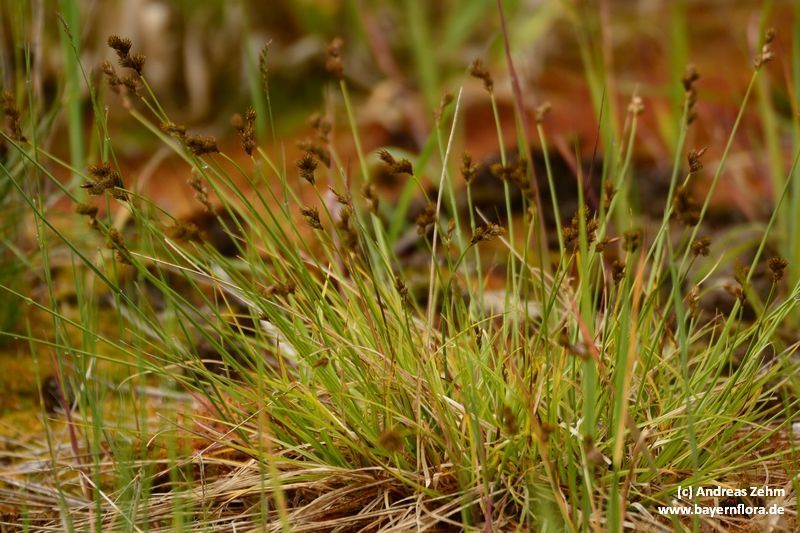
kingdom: Plantae
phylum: Tracheophyta
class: Liliopsida
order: Poales
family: Cyperaceae
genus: Carex
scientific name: Carex leporina
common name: Oval sedge
